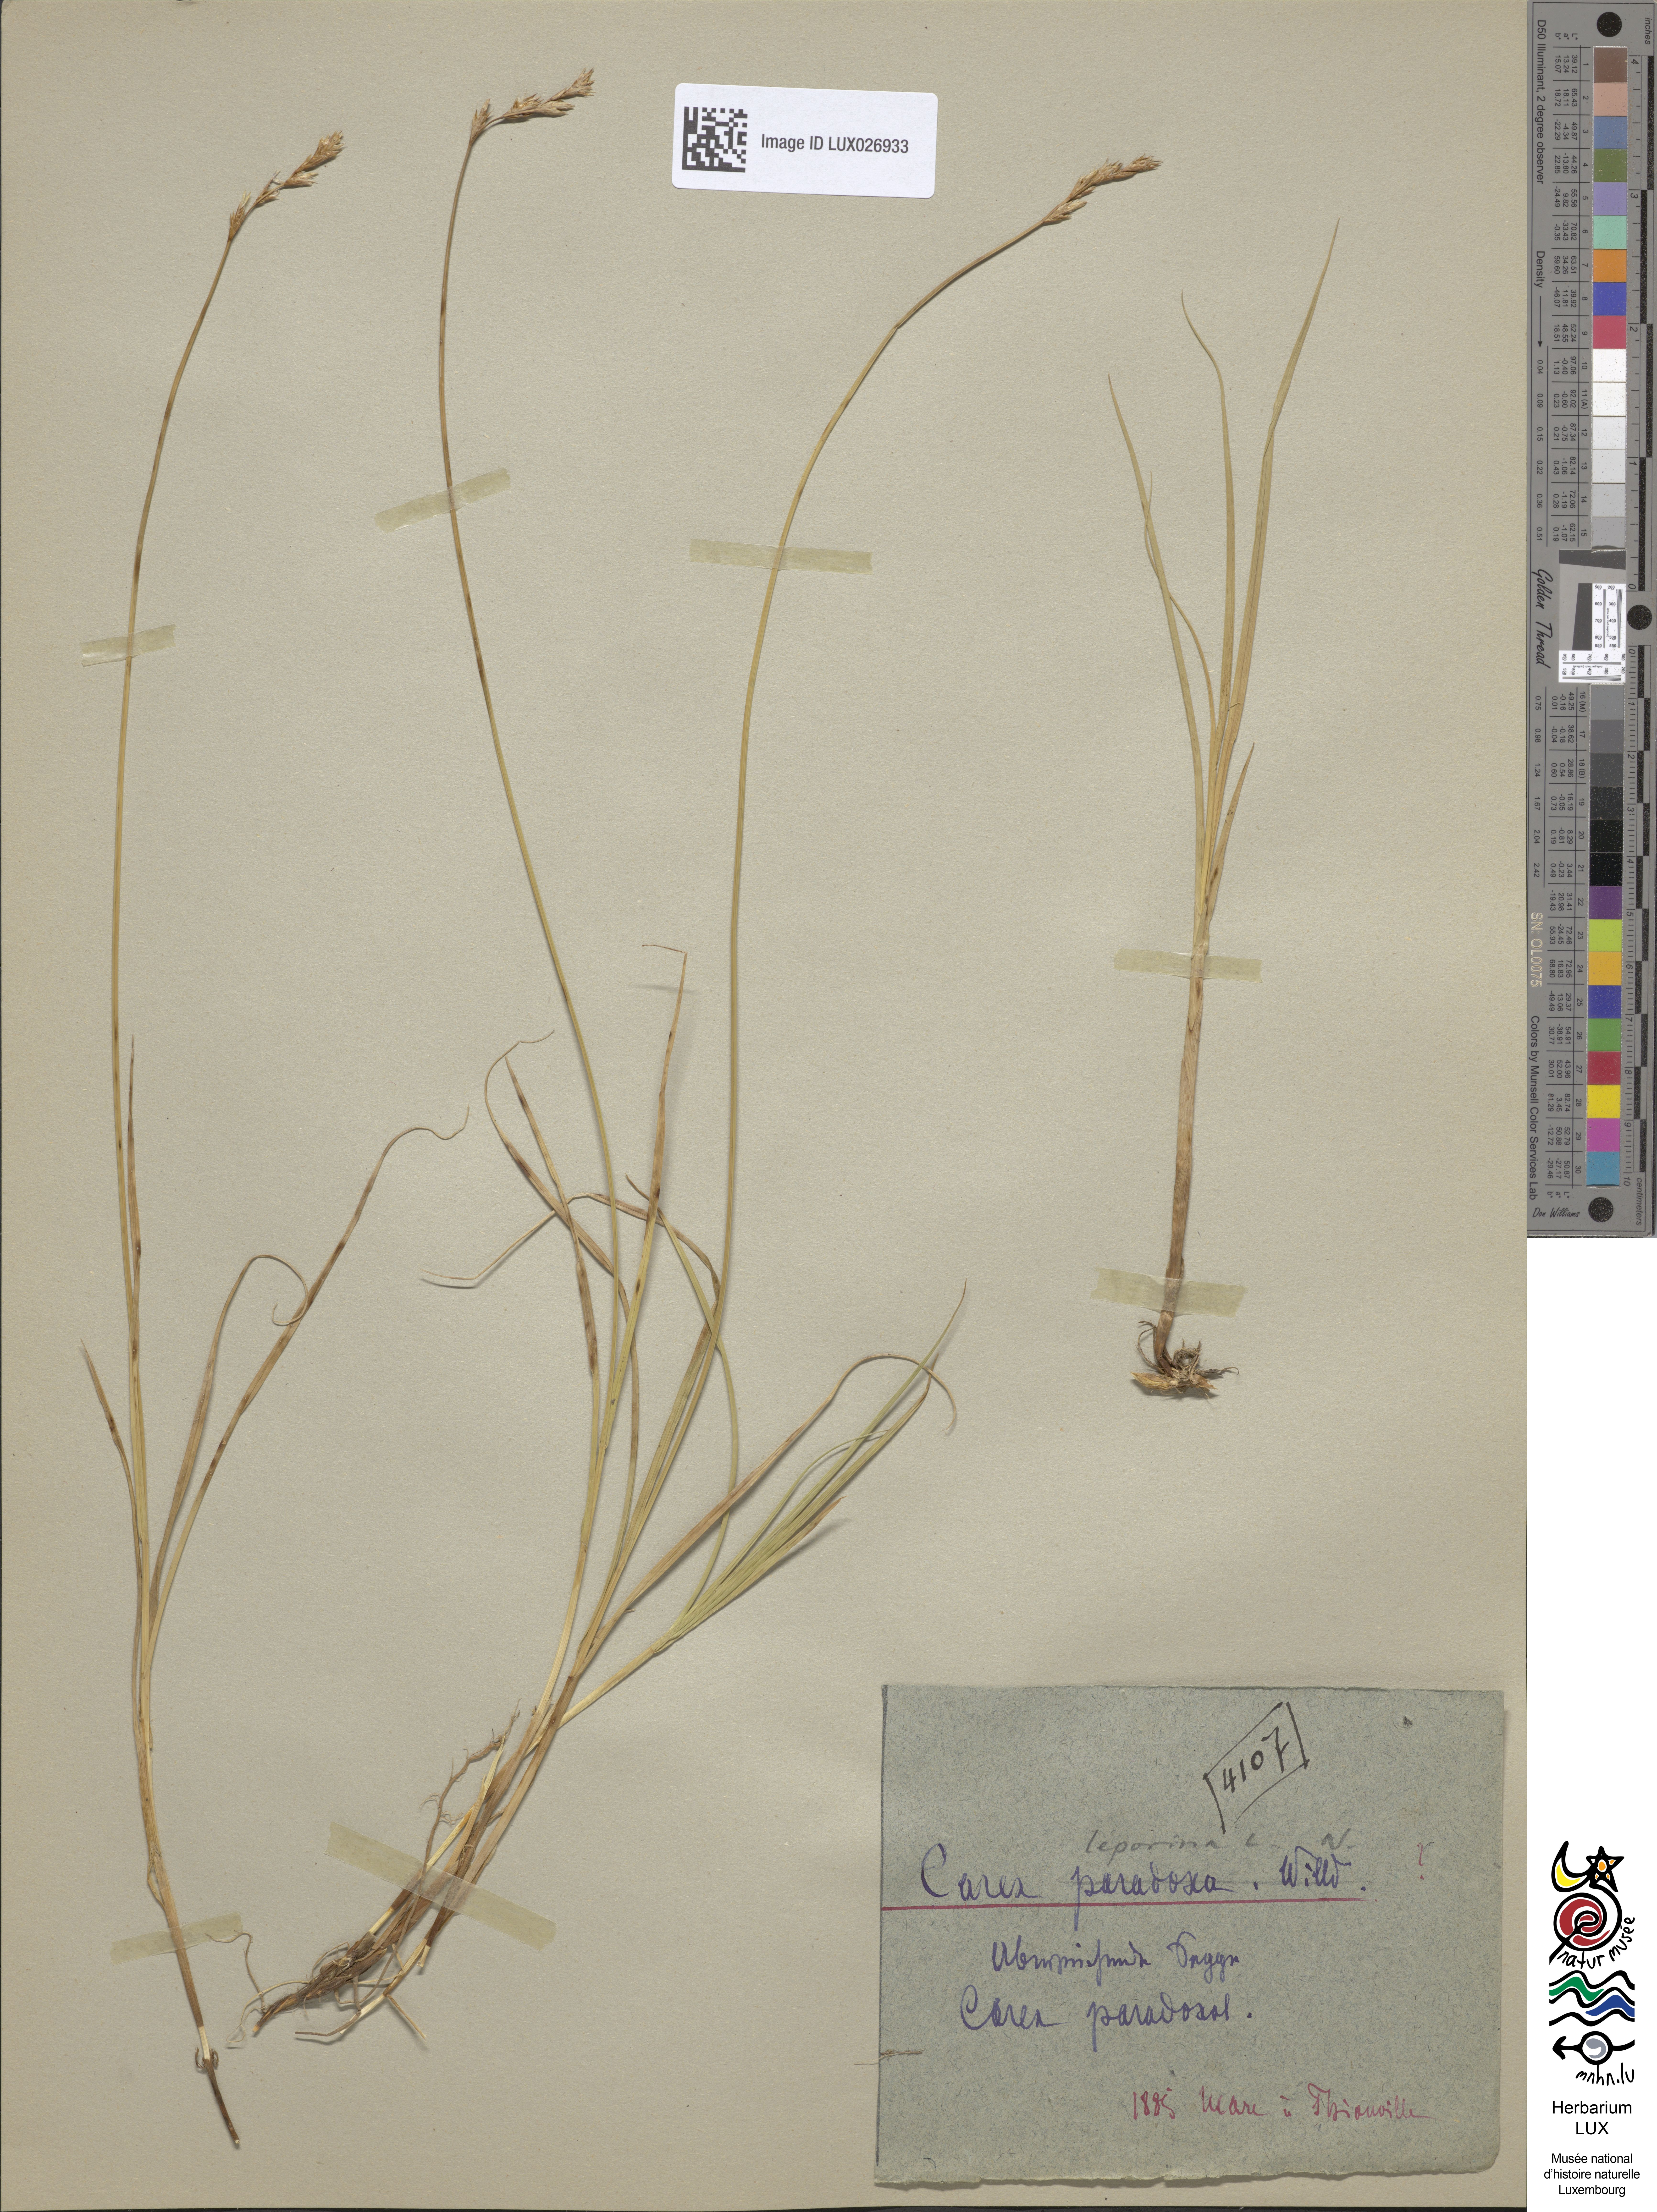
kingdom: Plantae
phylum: Tracheophyta
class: Liliopsida
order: Poales
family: Cyperaceae
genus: Carex
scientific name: Carex appropinquata
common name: Fibrous tussock-sedge
